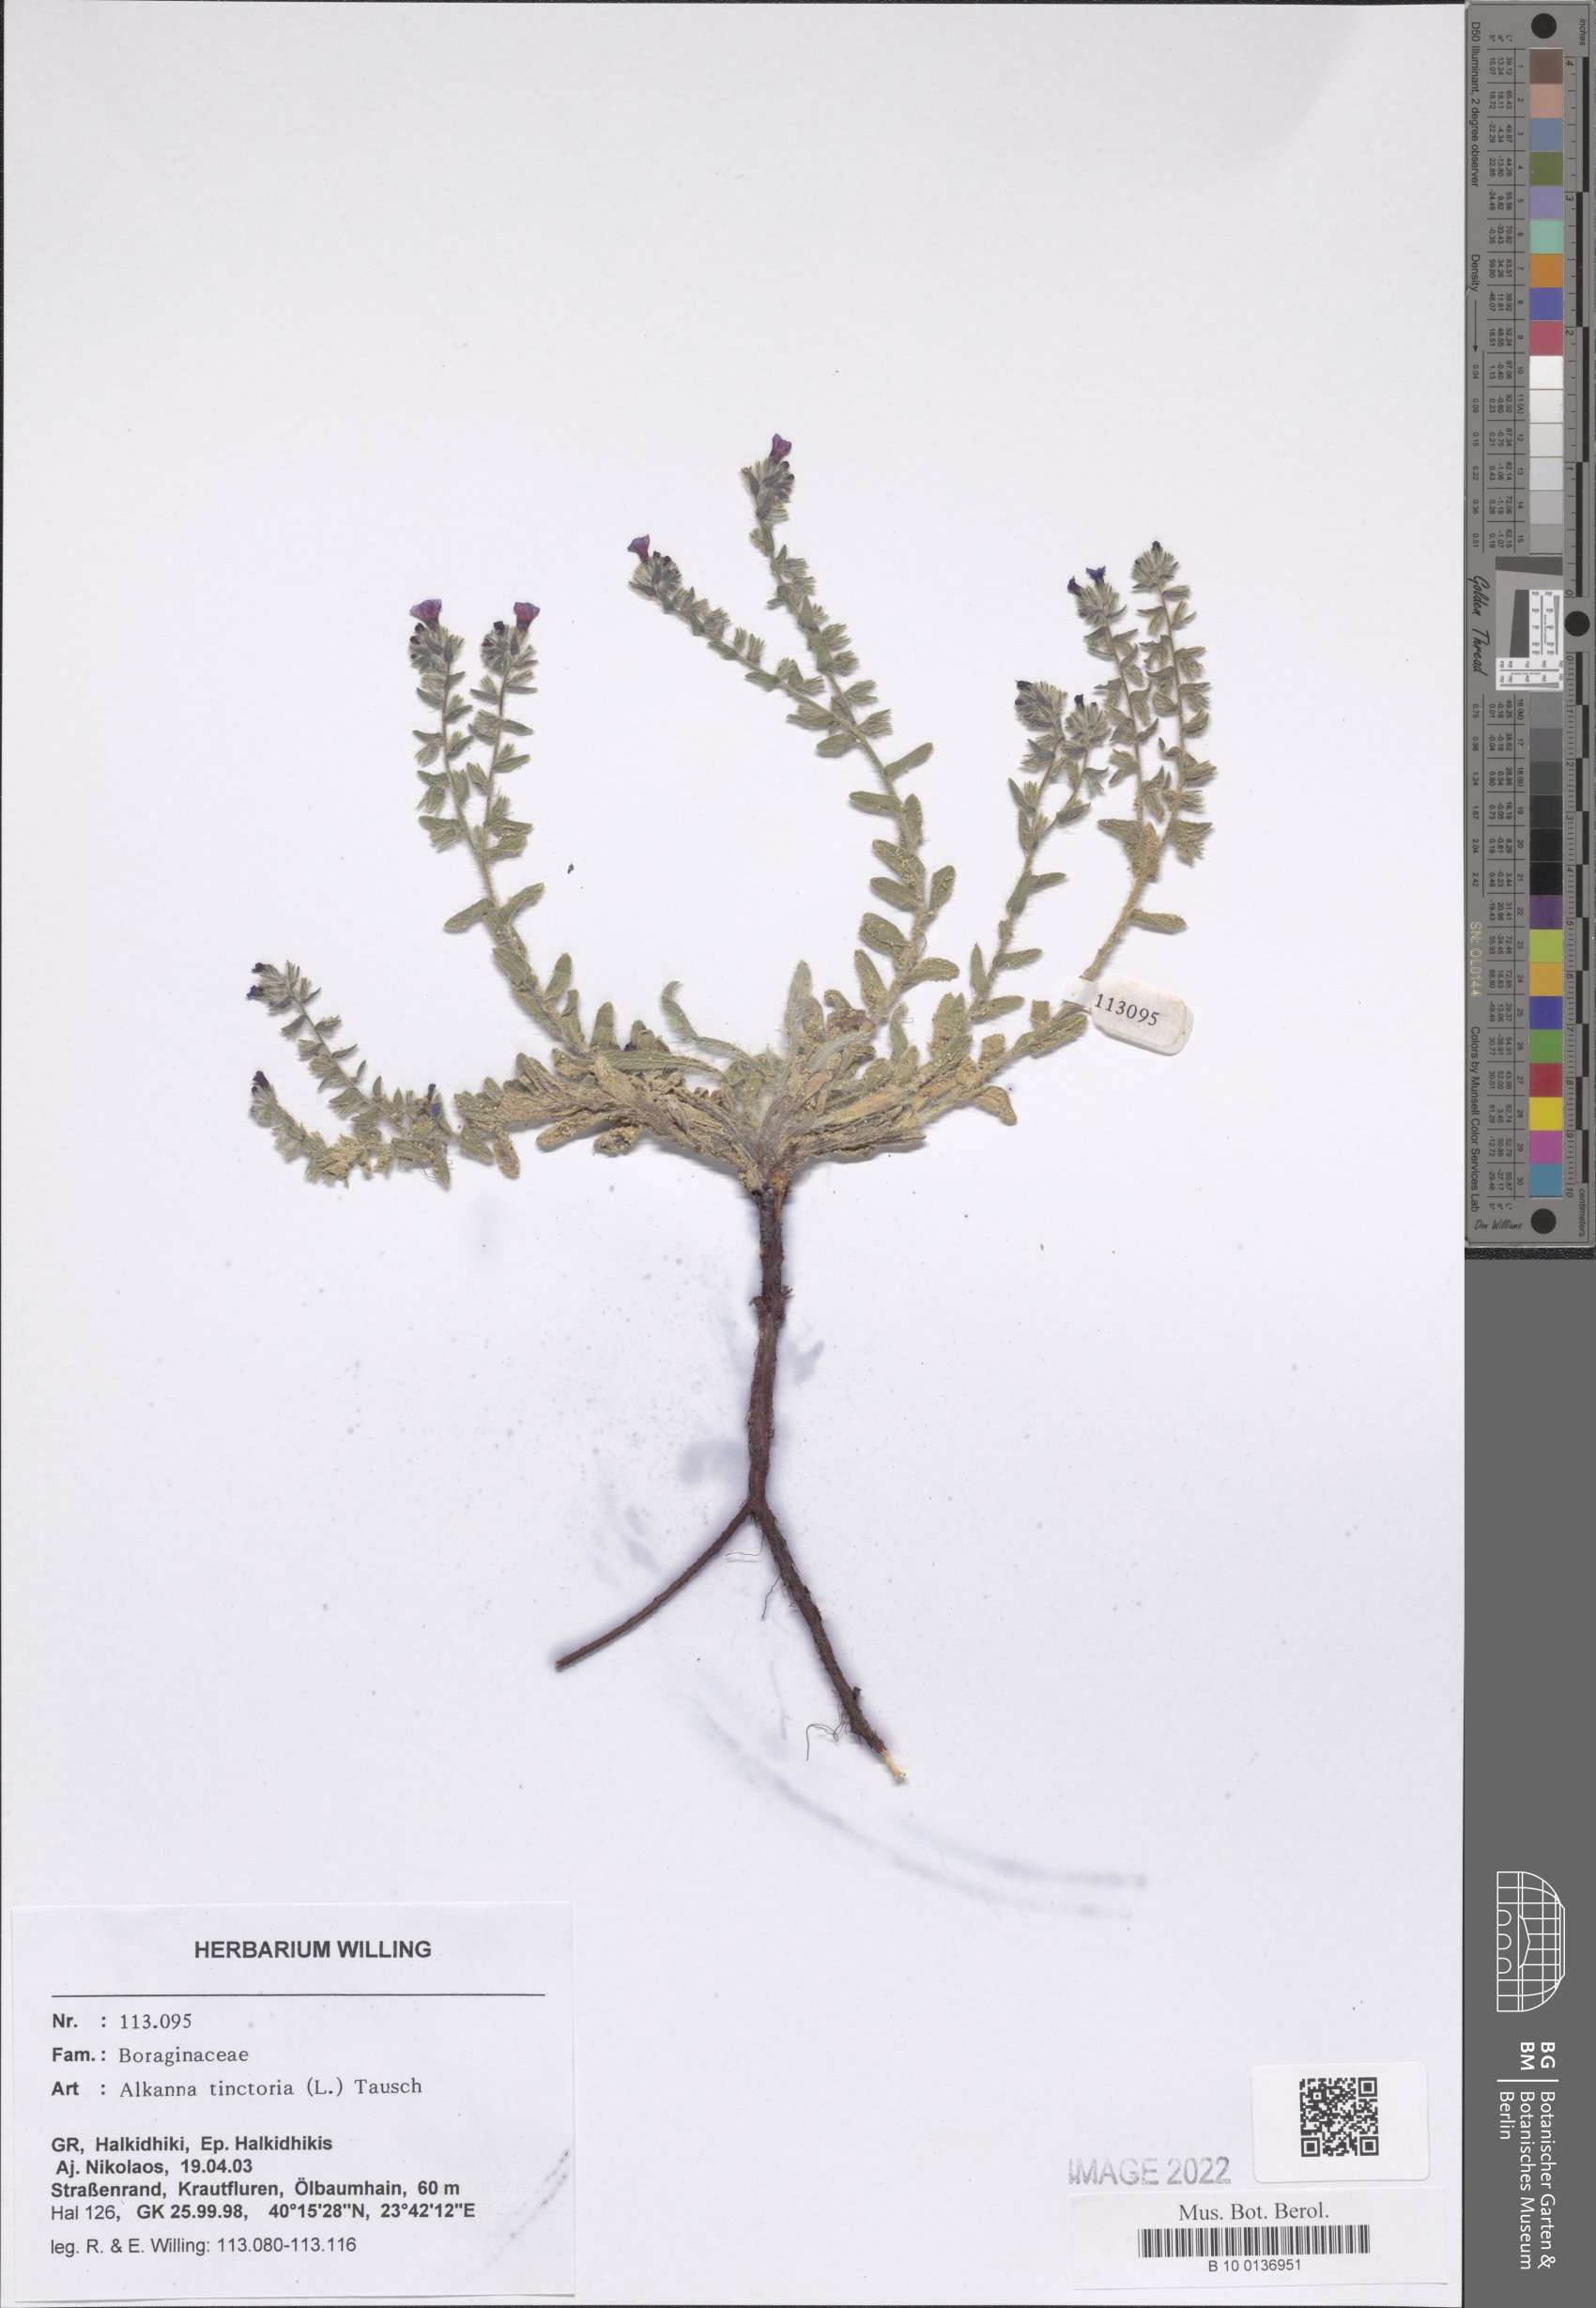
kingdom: Plantae
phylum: Tracheophyta
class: Magnoliopsida
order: Boraginales
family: Boraginaceae
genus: Alkanna
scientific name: Alkanna tinctoria
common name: Dyer's-alkanet
